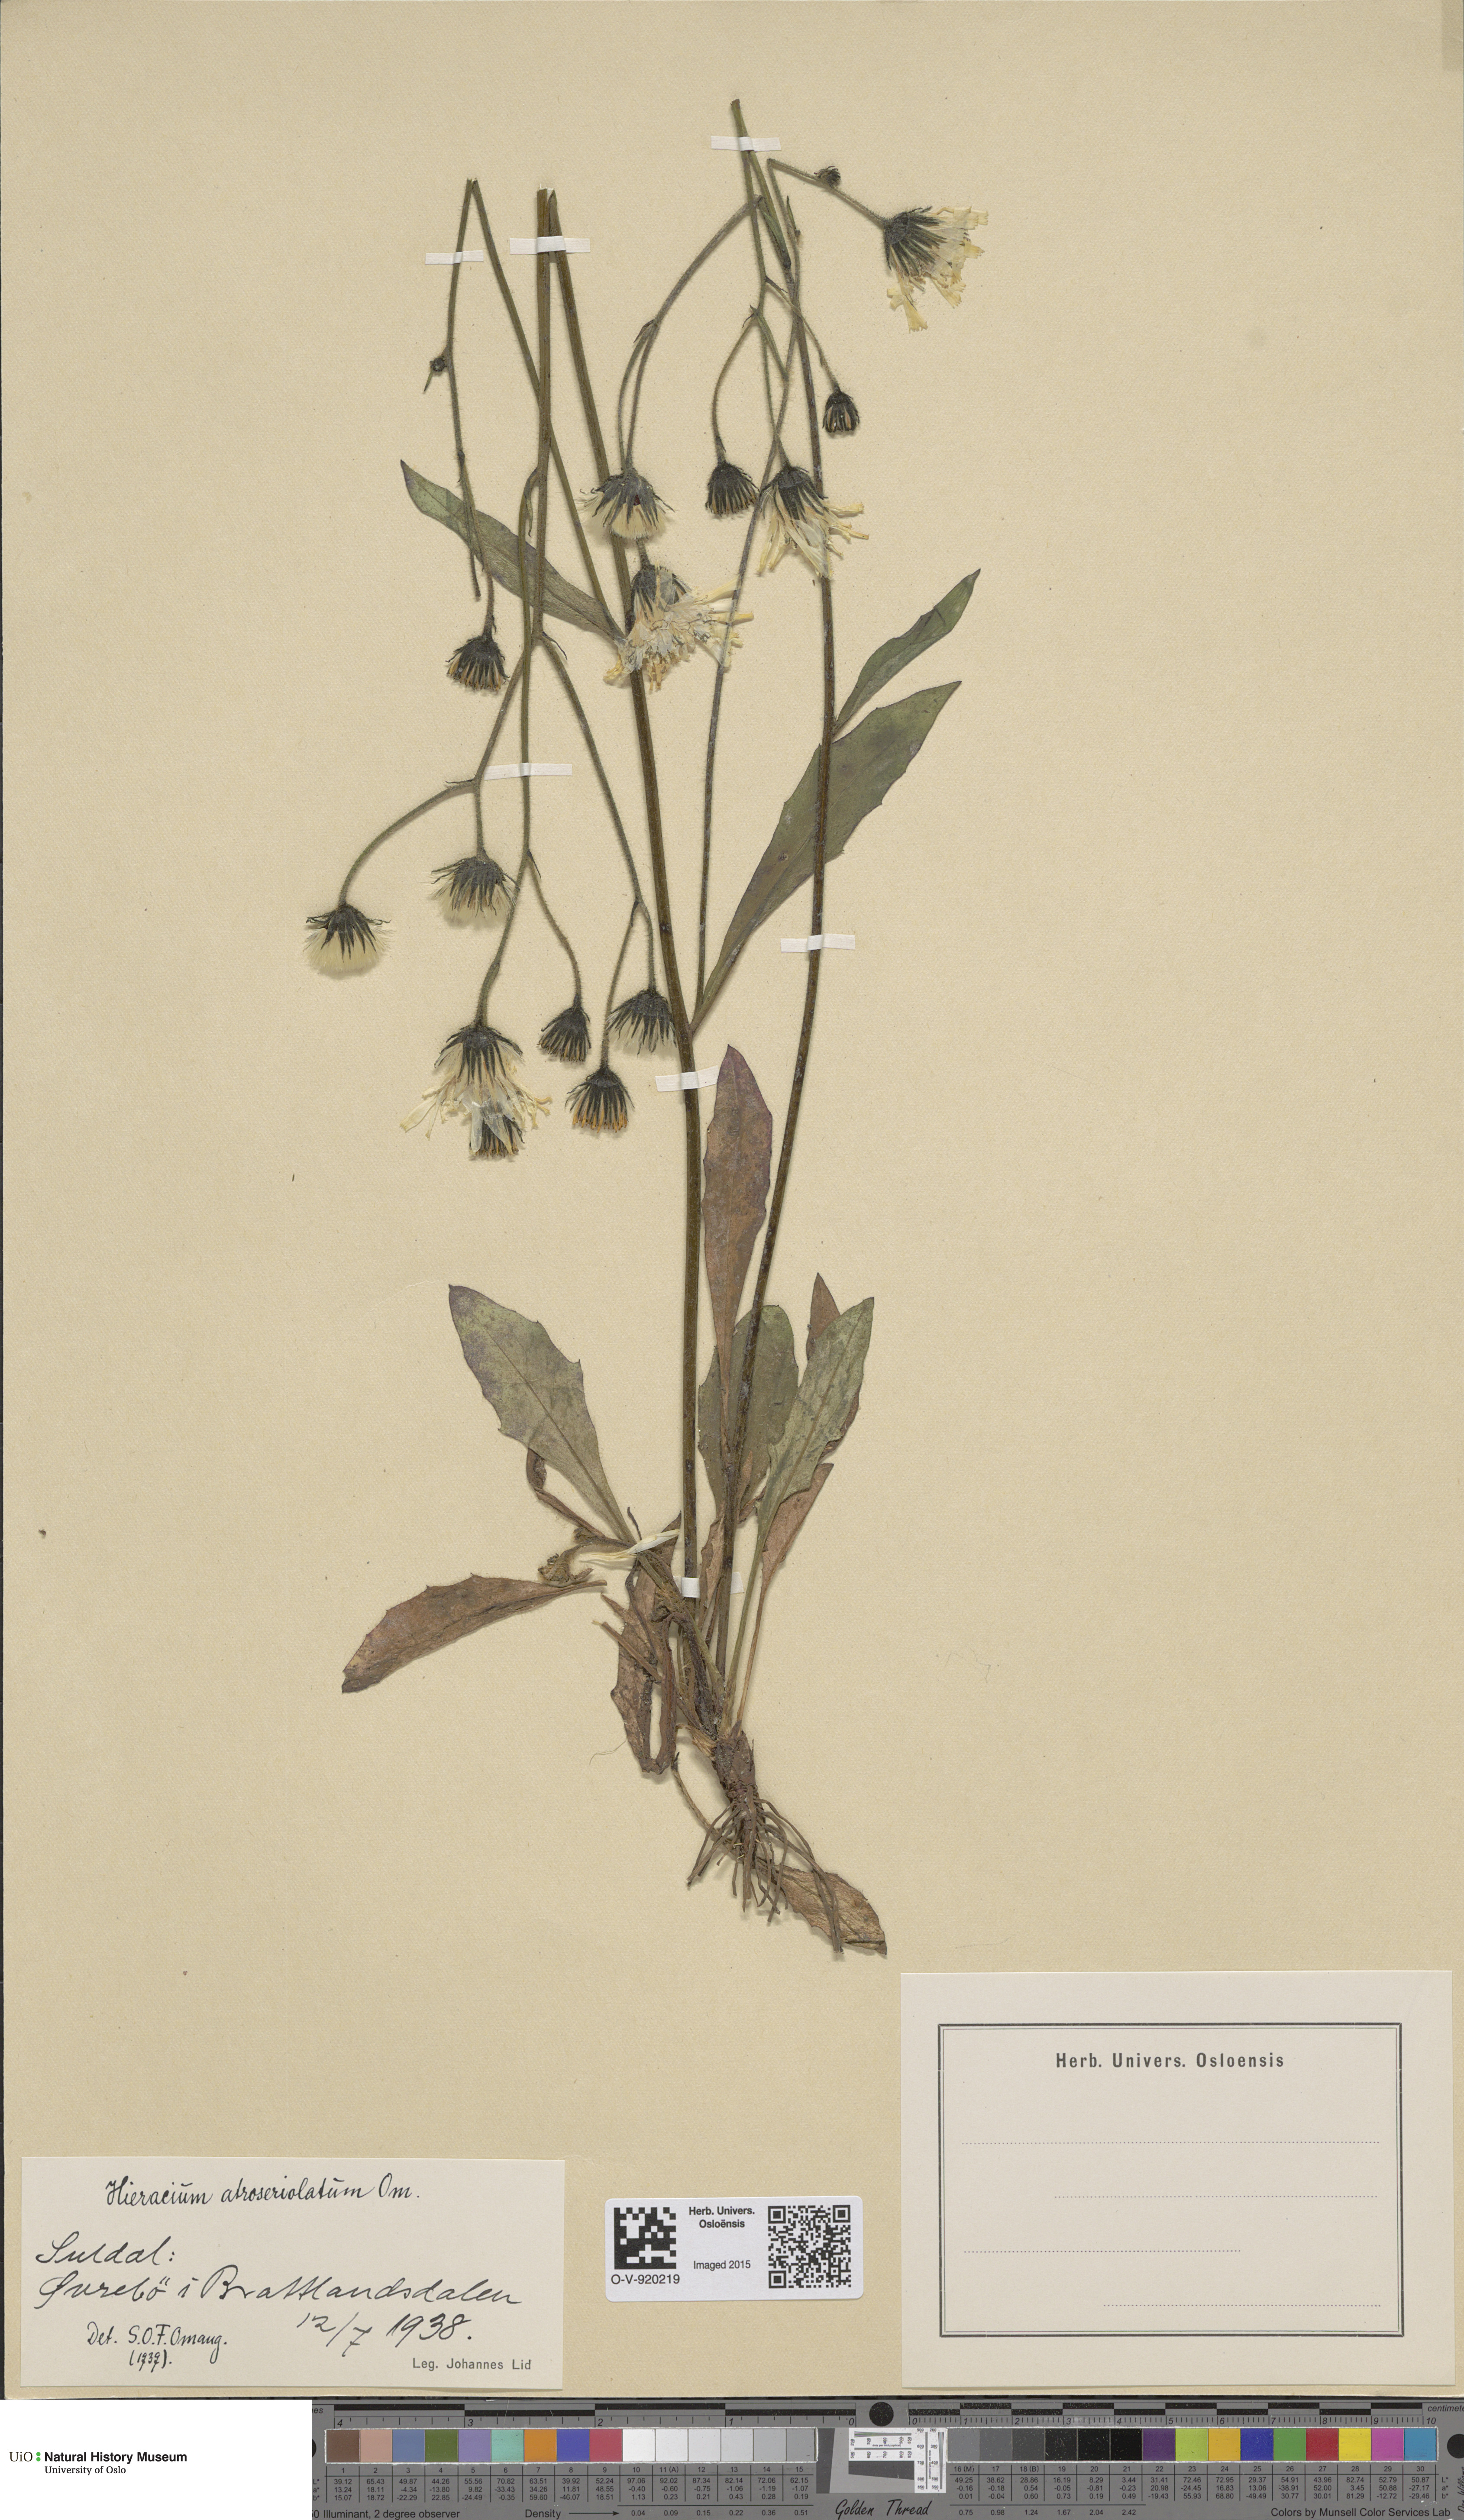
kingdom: Plantae
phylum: Tracheophyta
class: Magnoliopsida
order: Asterales
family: Asteraceae
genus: Hieracium
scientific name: Hieracium
